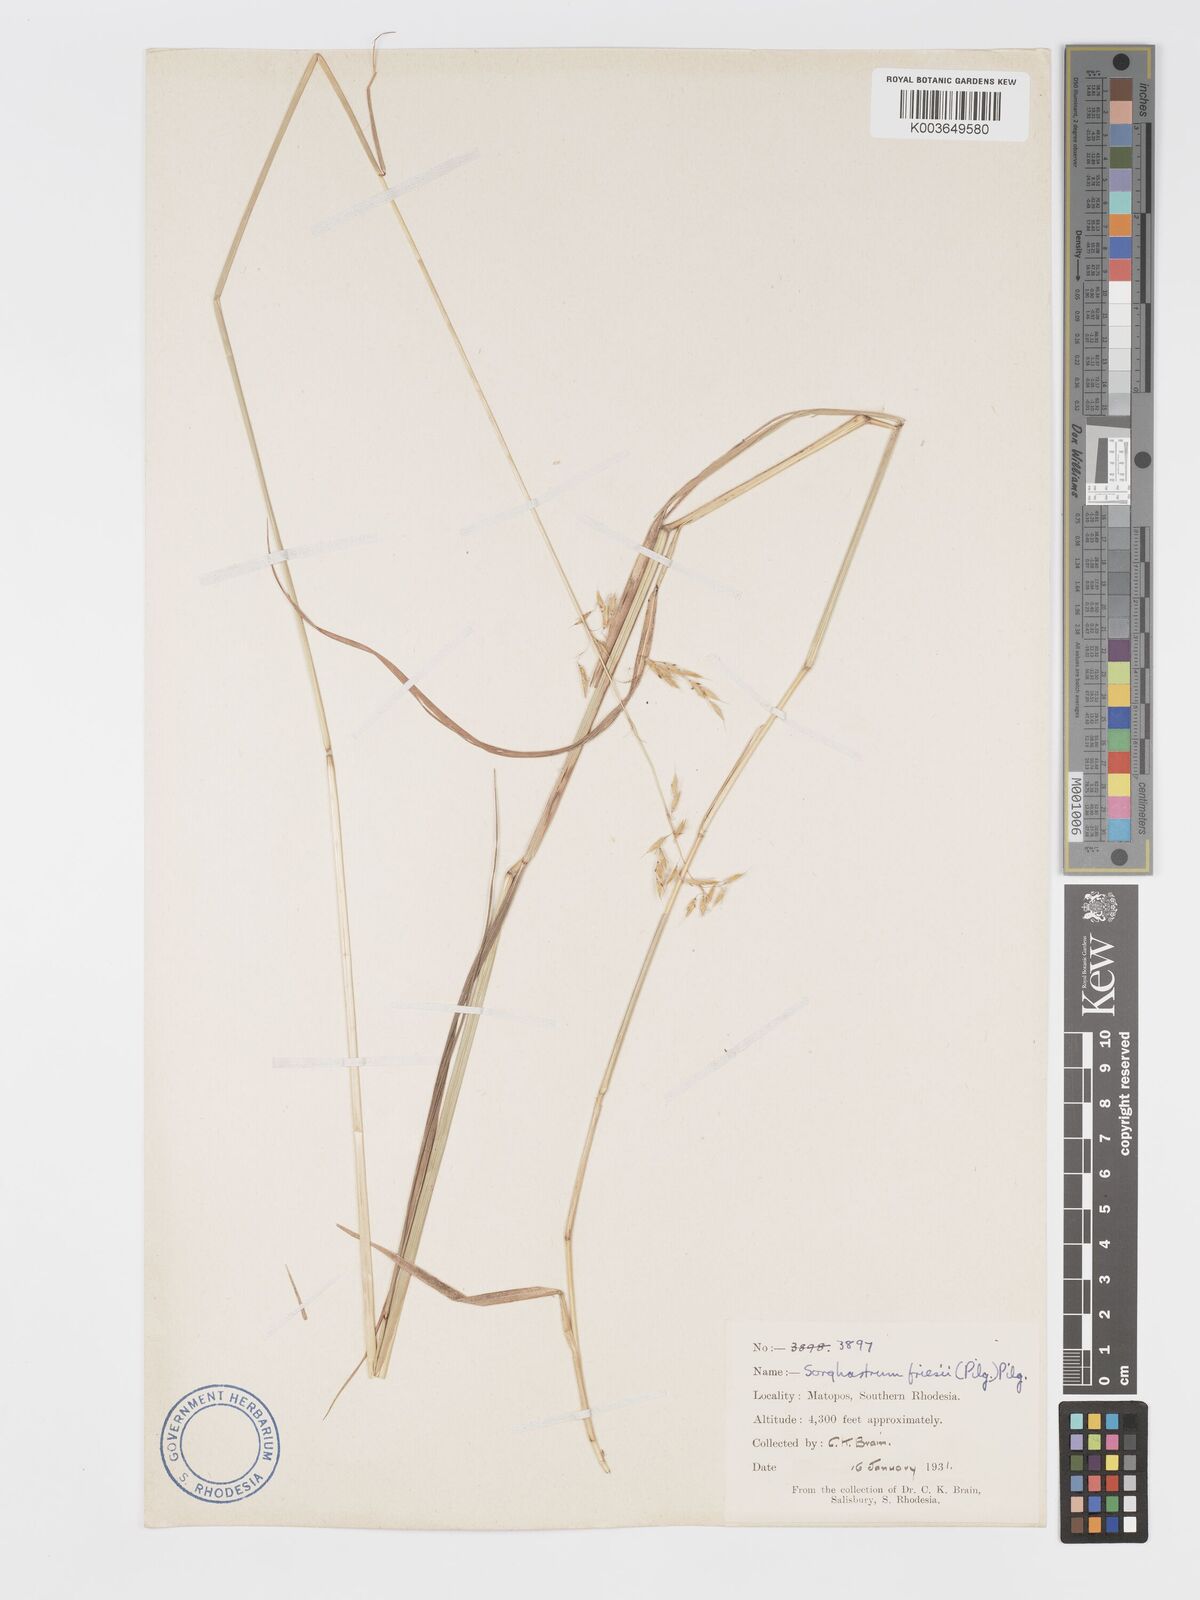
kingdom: Plantae
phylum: Tracheophyta
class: Liliopsida
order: Poales
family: Poaceae
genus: Sorghastrum
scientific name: Sorghastrum nudipes
